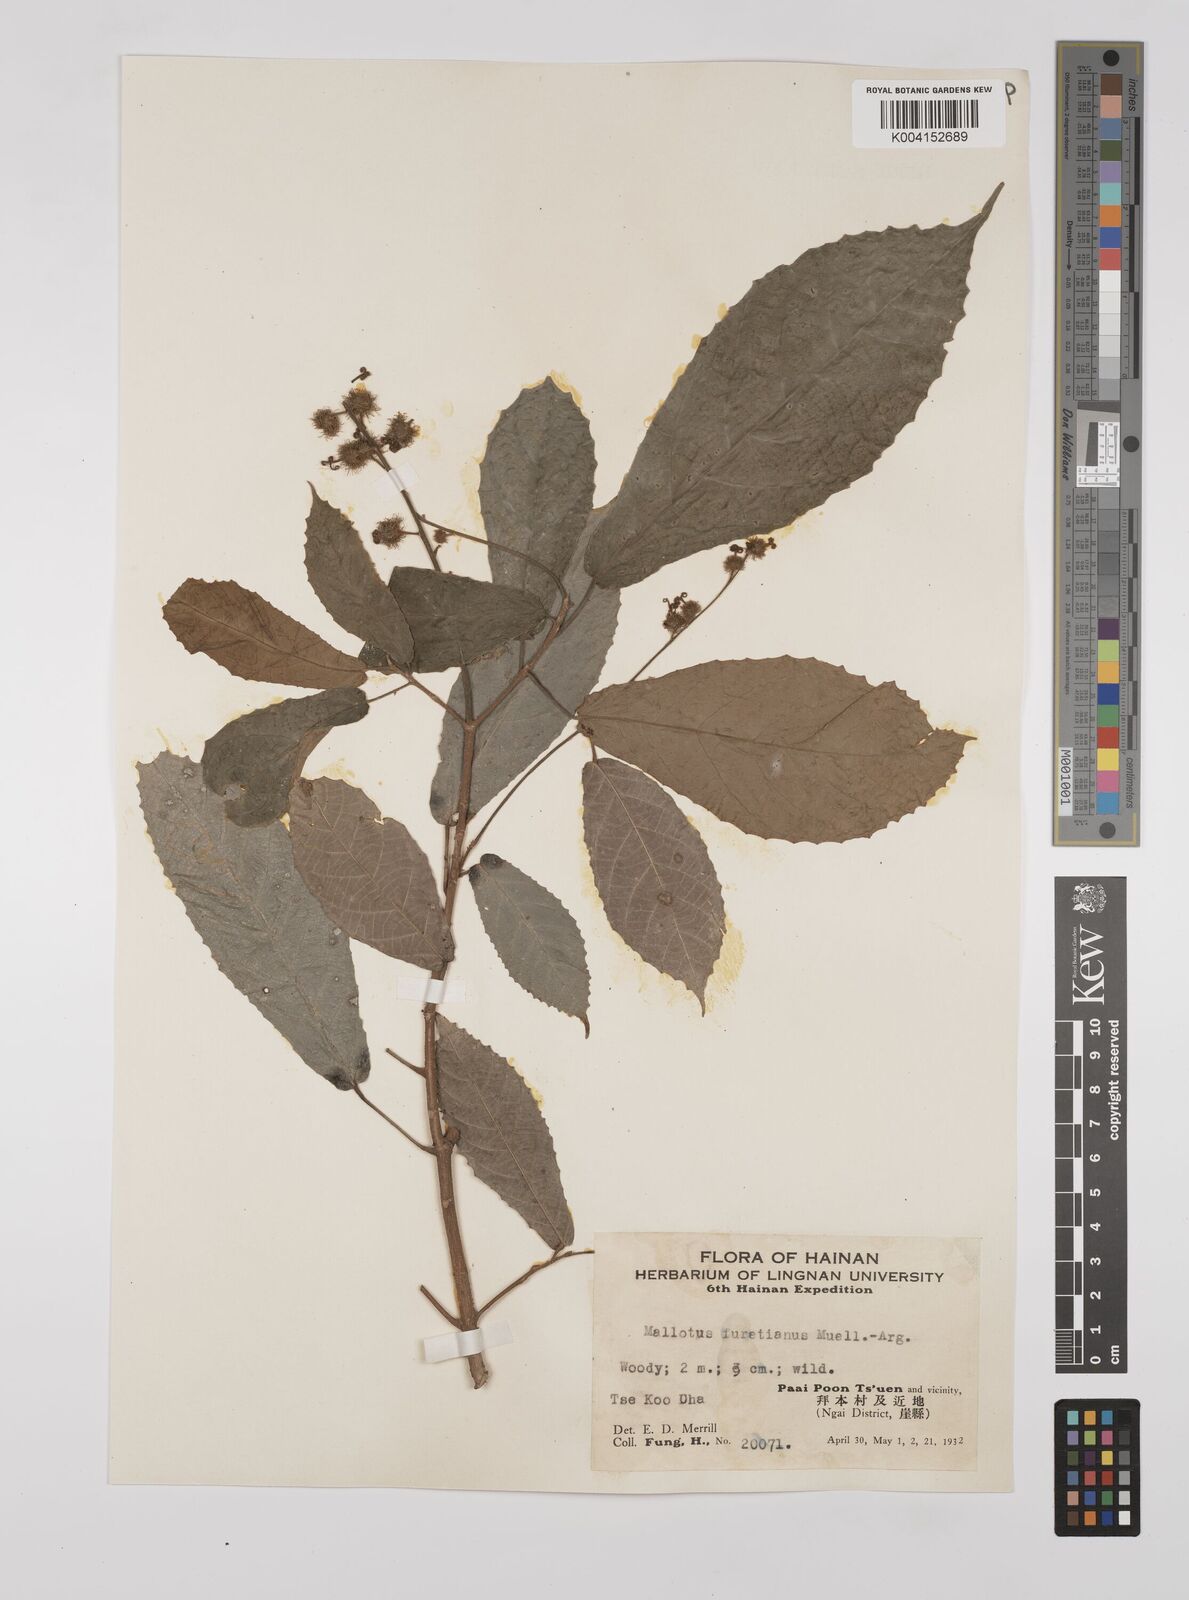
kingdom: Plantae
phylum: Tracheophyta
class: Magnoliopsida
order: Malpighiales
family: Euphorbiaceae
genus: Mallotus
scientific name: Mallotus peltatus
